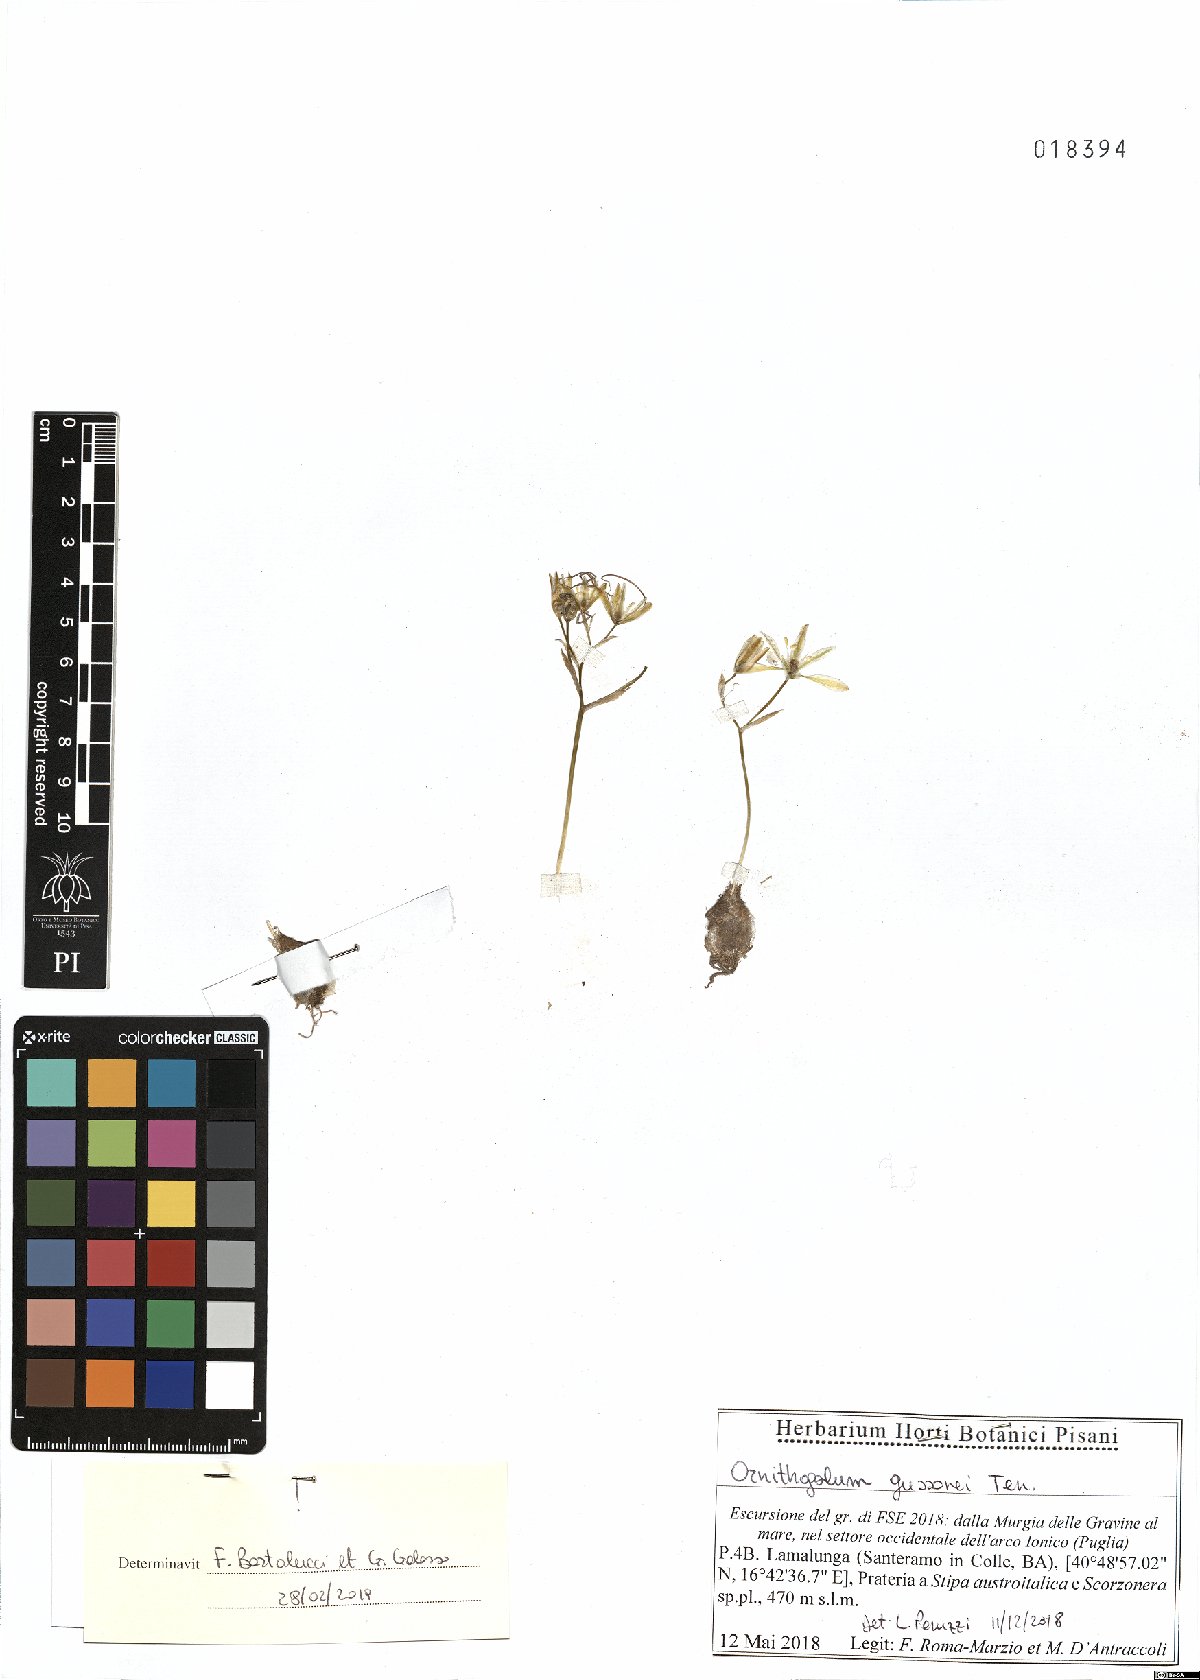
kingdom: Plantae
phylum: Tracheophyta
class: Liliopsida
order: Asparagales
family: Asparagaceae
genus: Ornithogalum
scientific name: Ornithogalum gussonei
